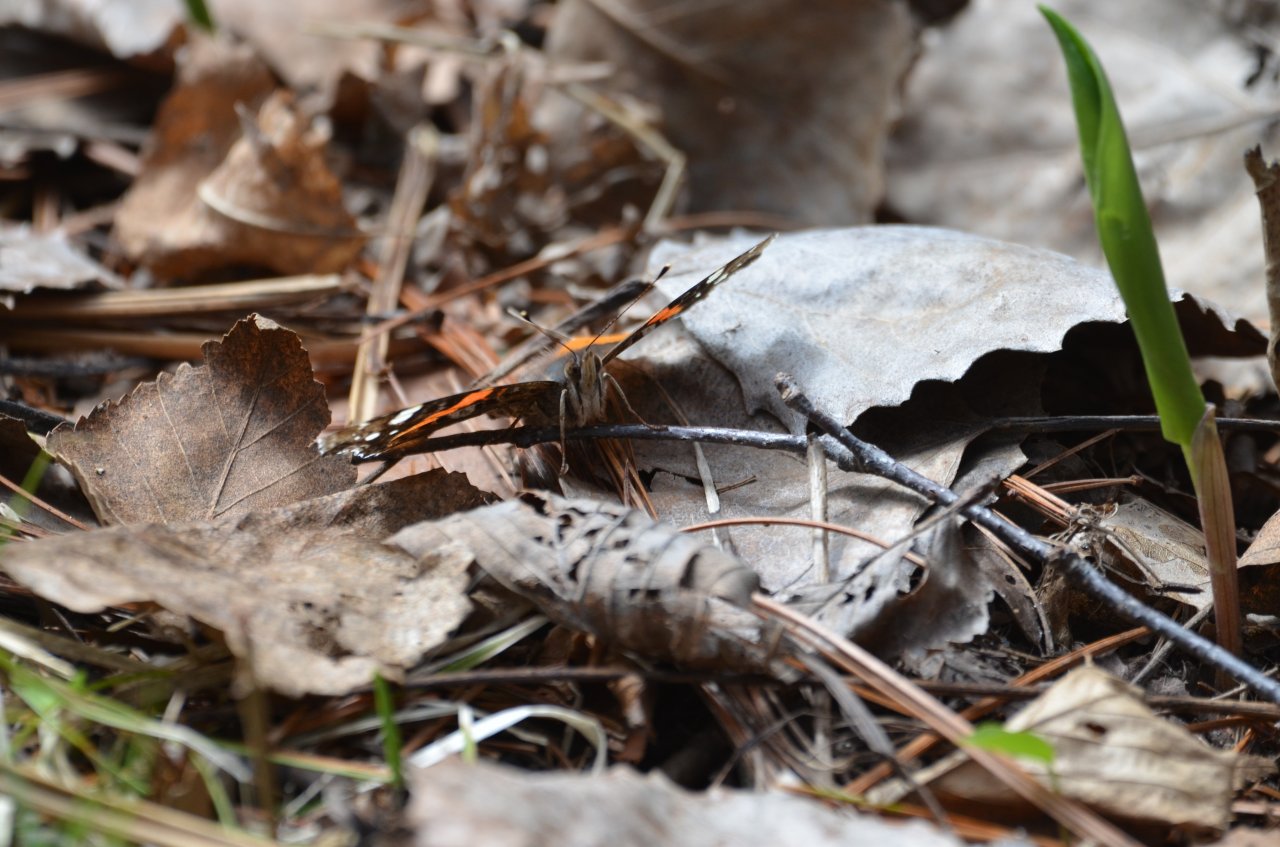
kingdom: Animalia
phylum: Arthropoda
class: Insecta
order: Lepidoptera
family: Nymphalidae
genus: Vanessa
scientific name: Vanessa atalanta
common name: Red Admiral
